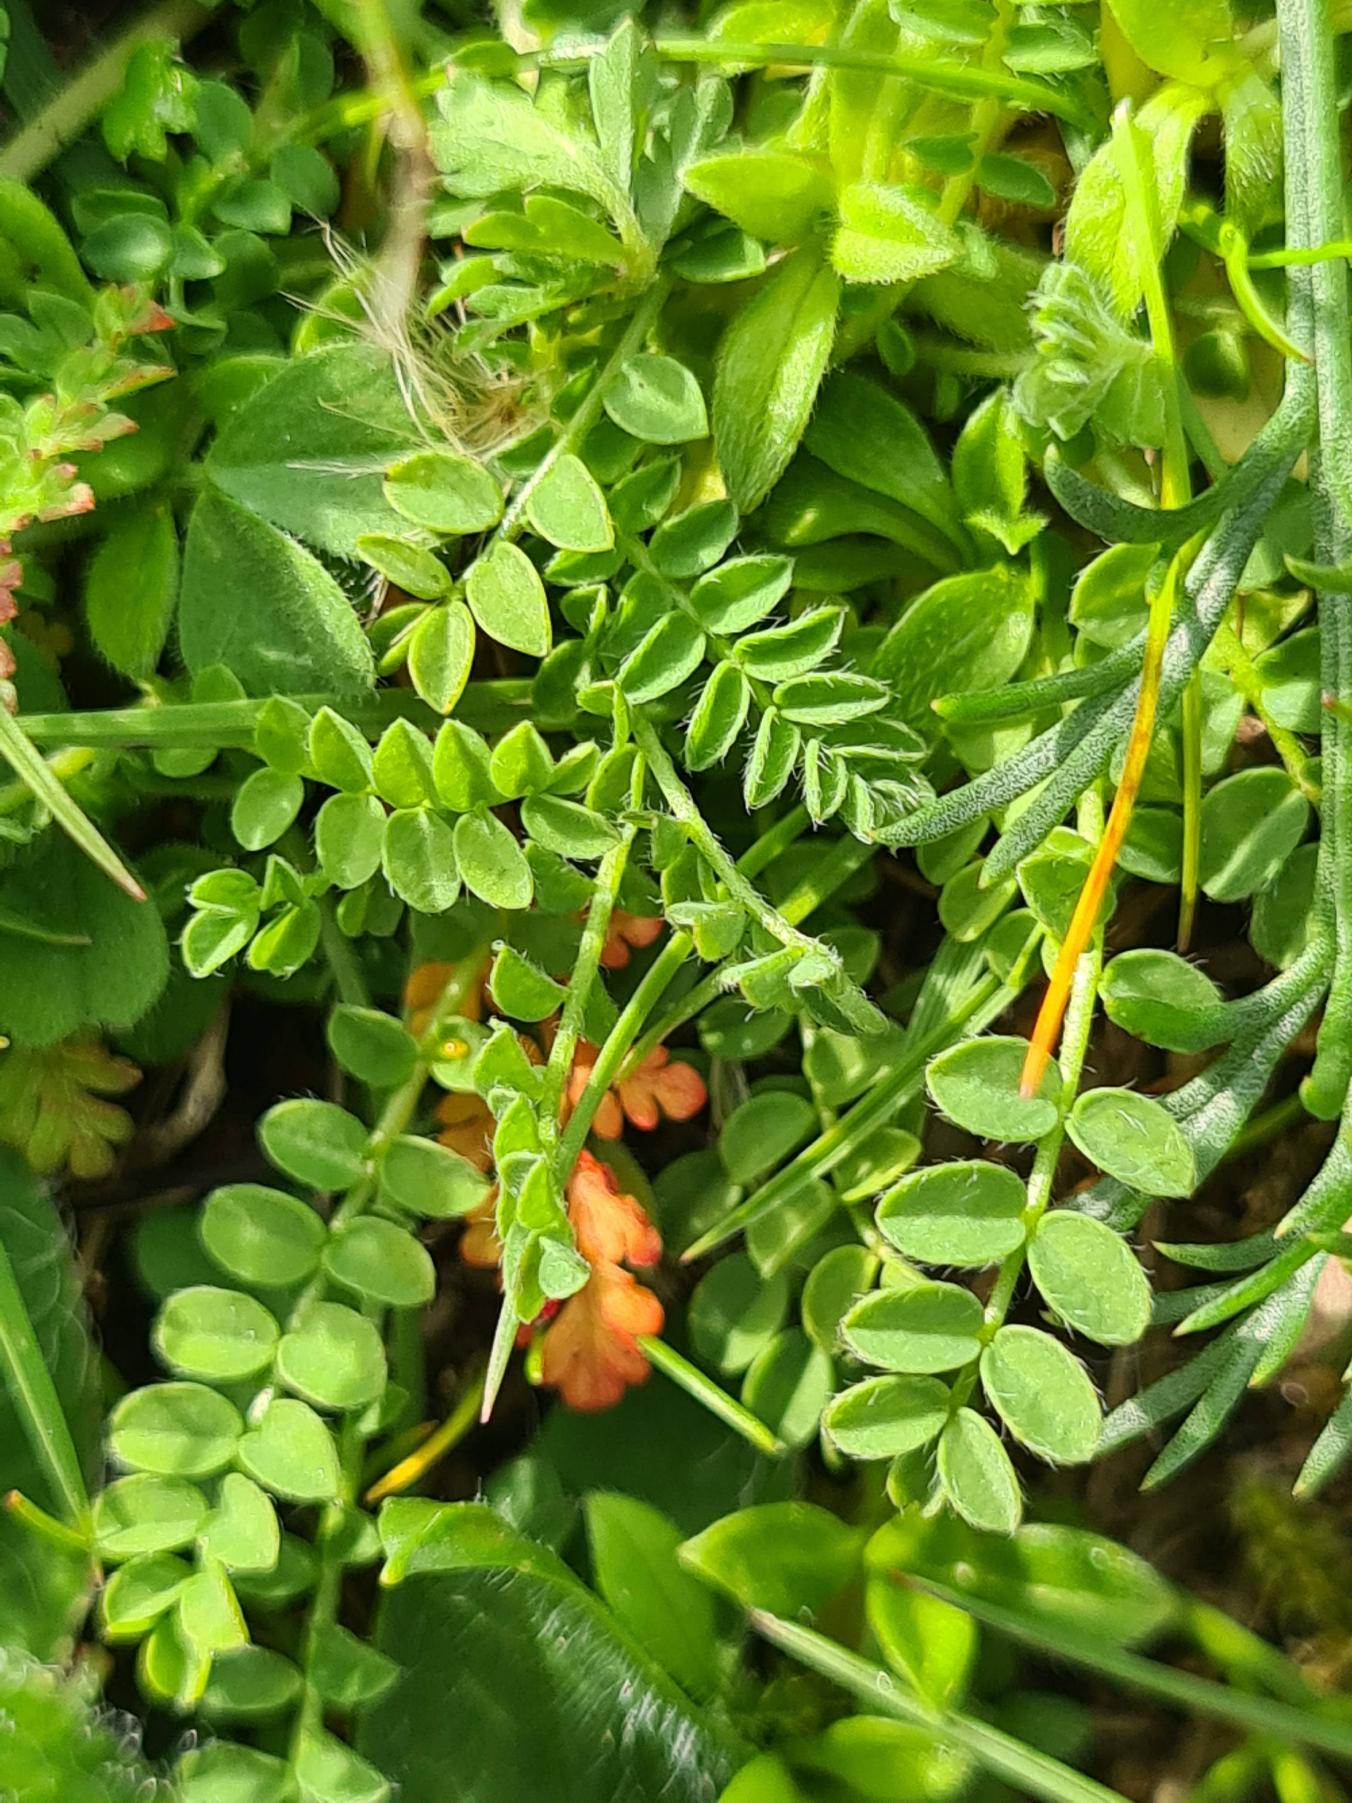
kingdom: Plantae
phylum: Tracheophyta
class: Magnoliopsida
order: Fabales
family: Fabaceae
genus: Ornithopus
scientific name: Ornithopus perpusillus
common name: Liden fugleklo
